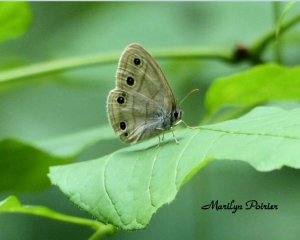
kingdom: Animalia
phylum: Arthropoda
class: Insecta
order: Lepidoptera
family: Nymphalidae
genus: Euptychia
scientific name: Euptychia cymela
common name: Little Wood Satyr
